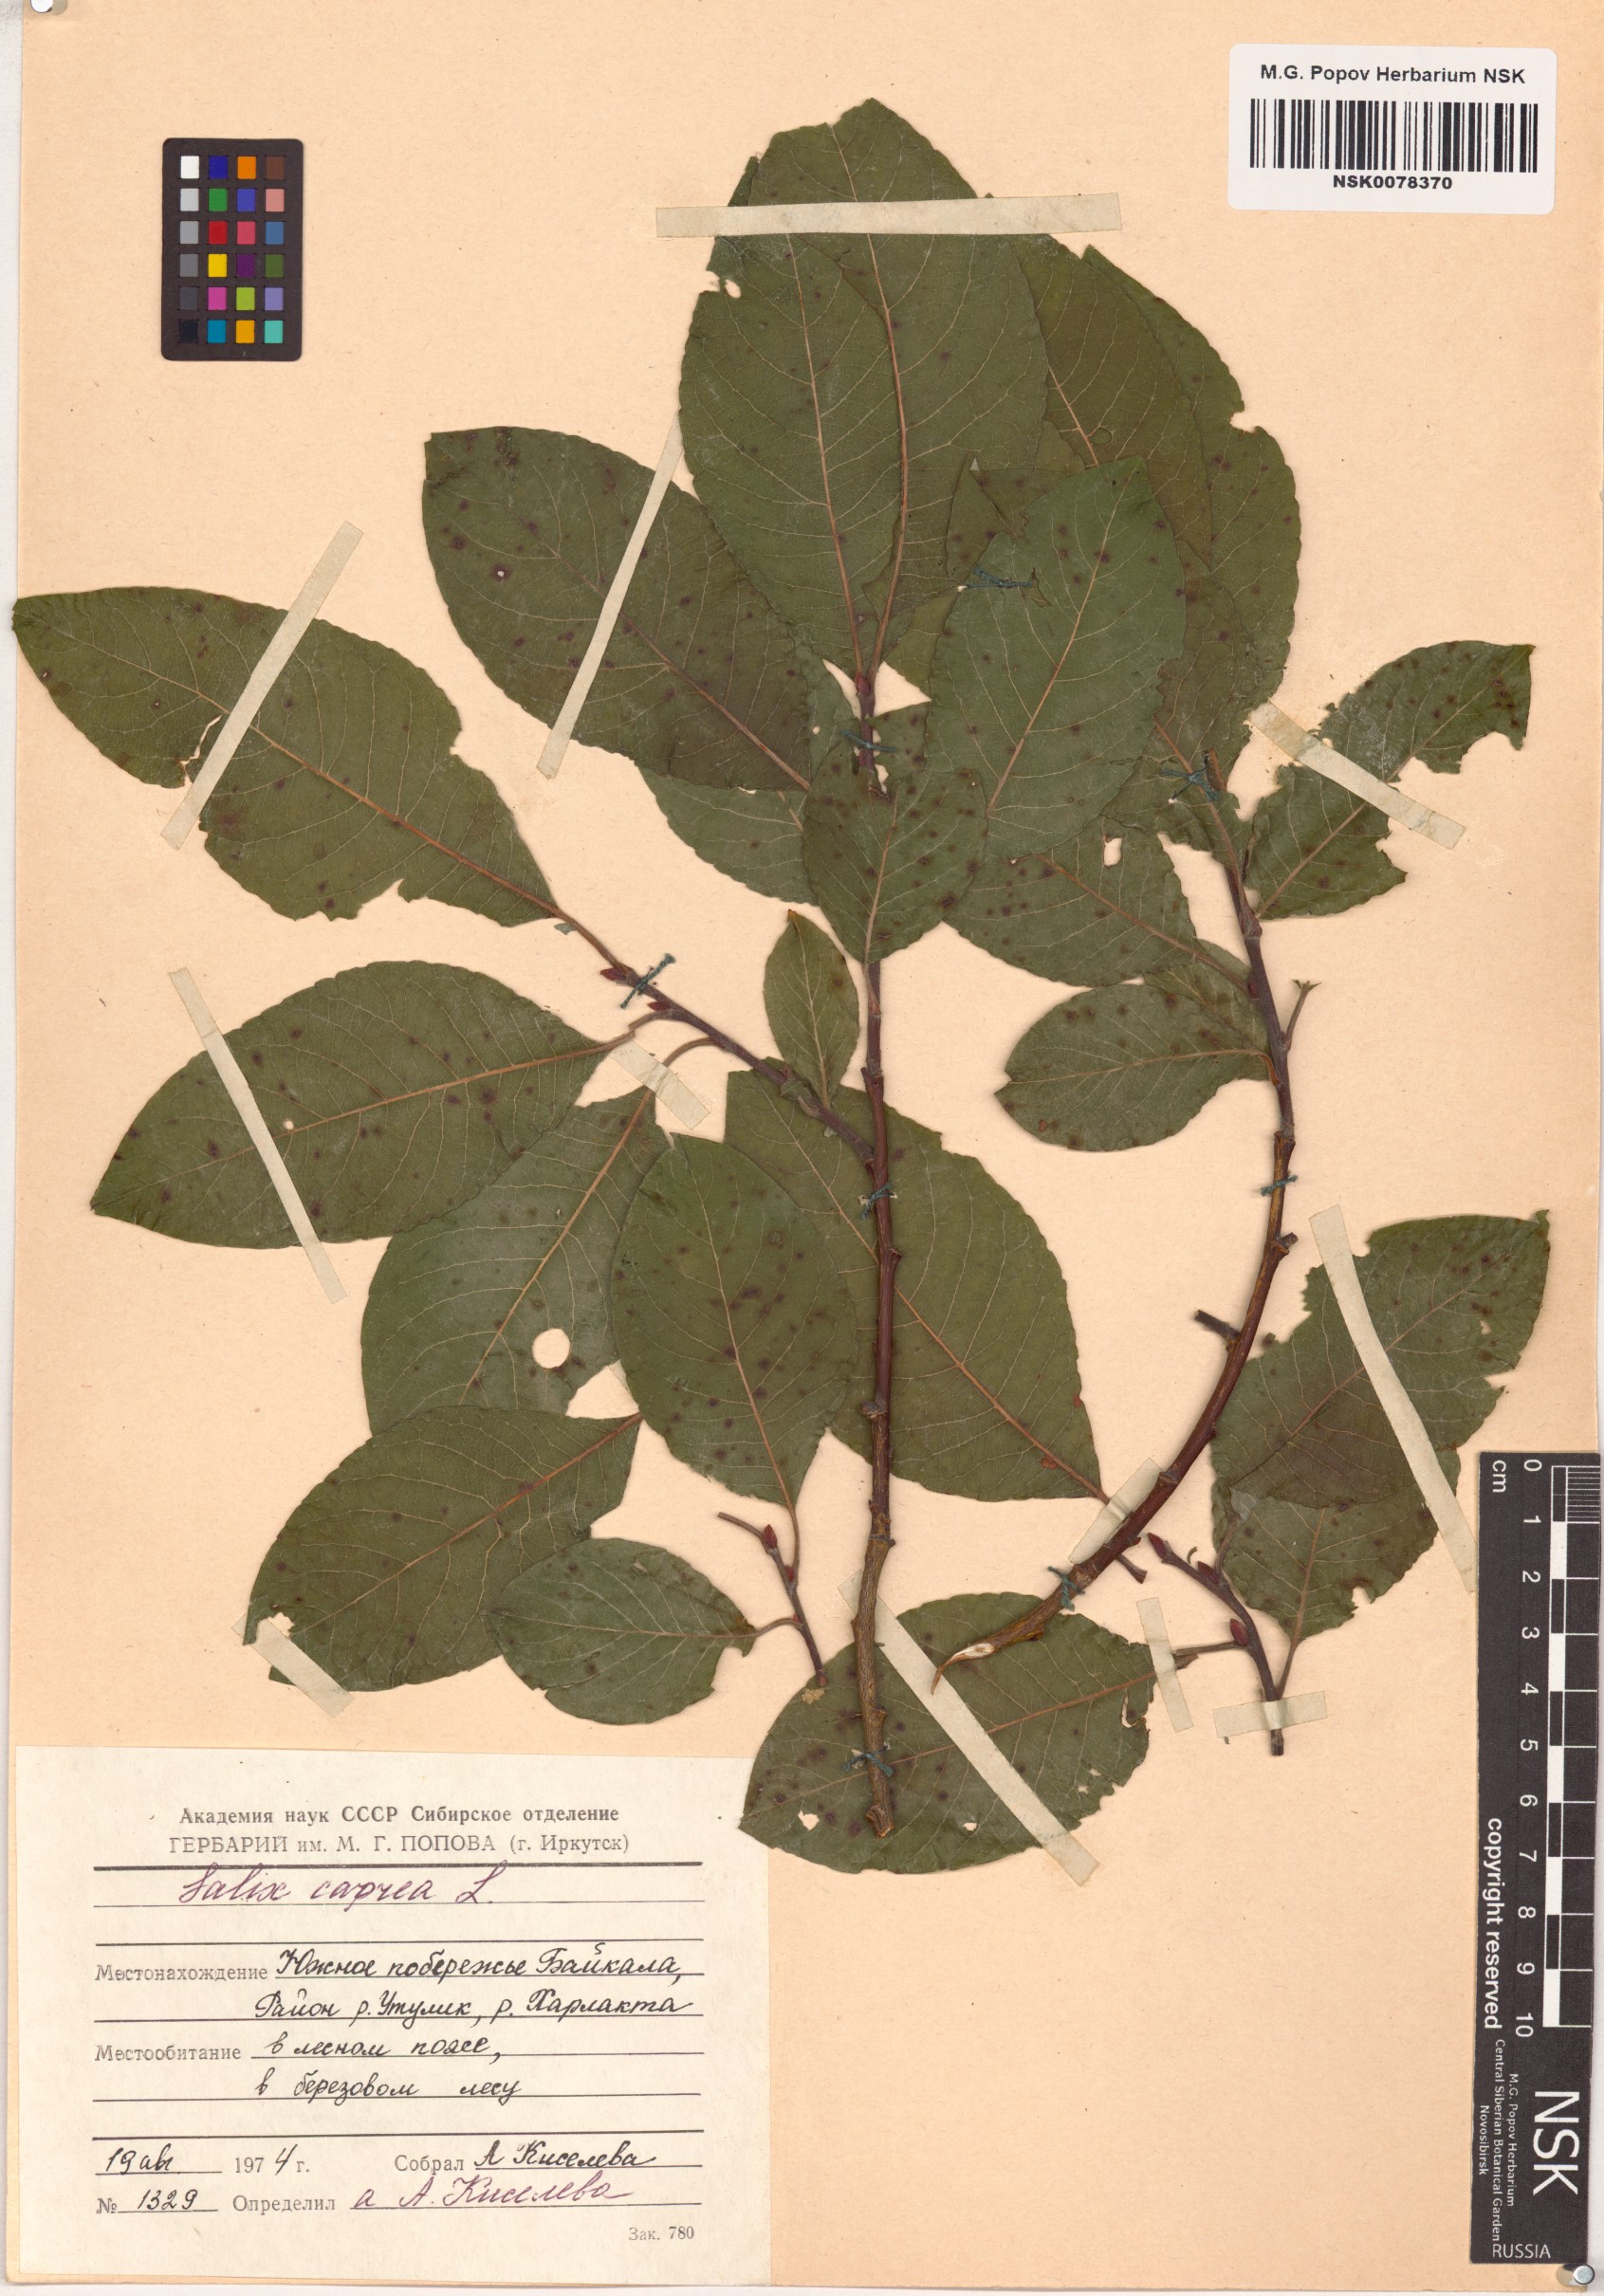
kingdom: Plantae
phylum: Tracheophyta
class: Magnoliopsida
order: Malpighiales
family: Salicaceae
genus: Salix
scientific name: Salix caprea
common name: Goat willow
